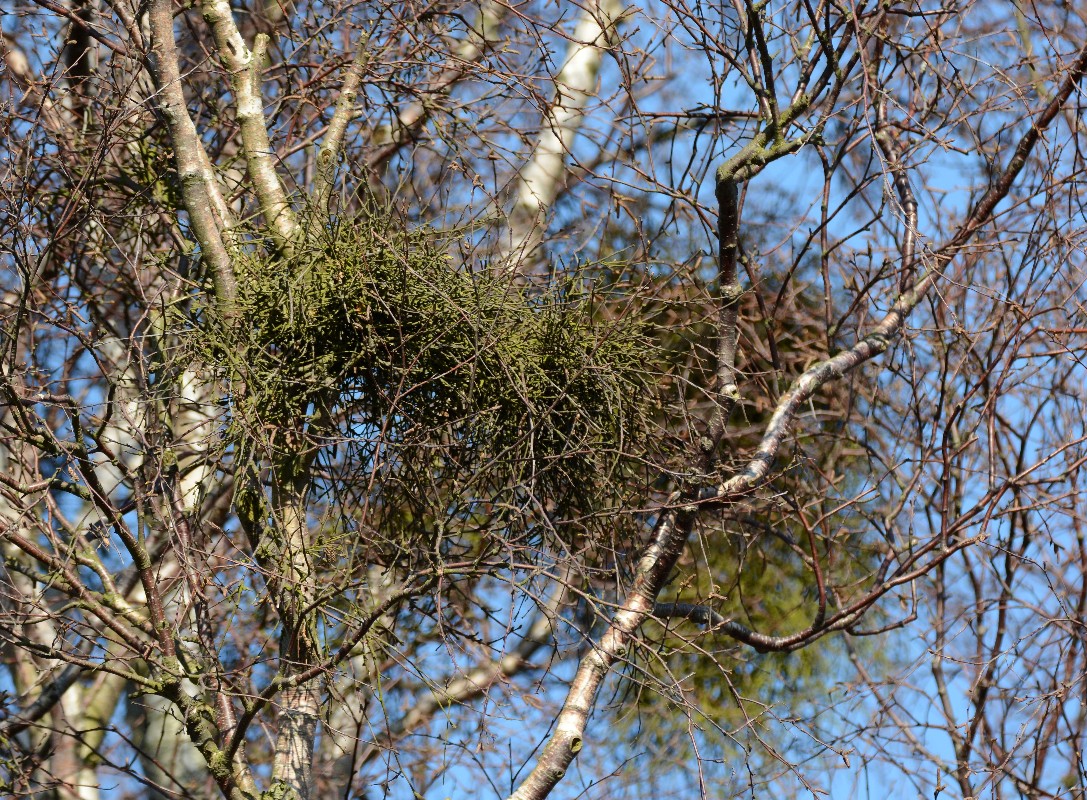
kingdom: Fungi
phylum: Ascomycota
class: Taphrinomycetes
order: Taphrinales
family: Taphrinaceae
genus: Taphrina
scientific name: Taphrina betulina
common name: hekse-sækdug
